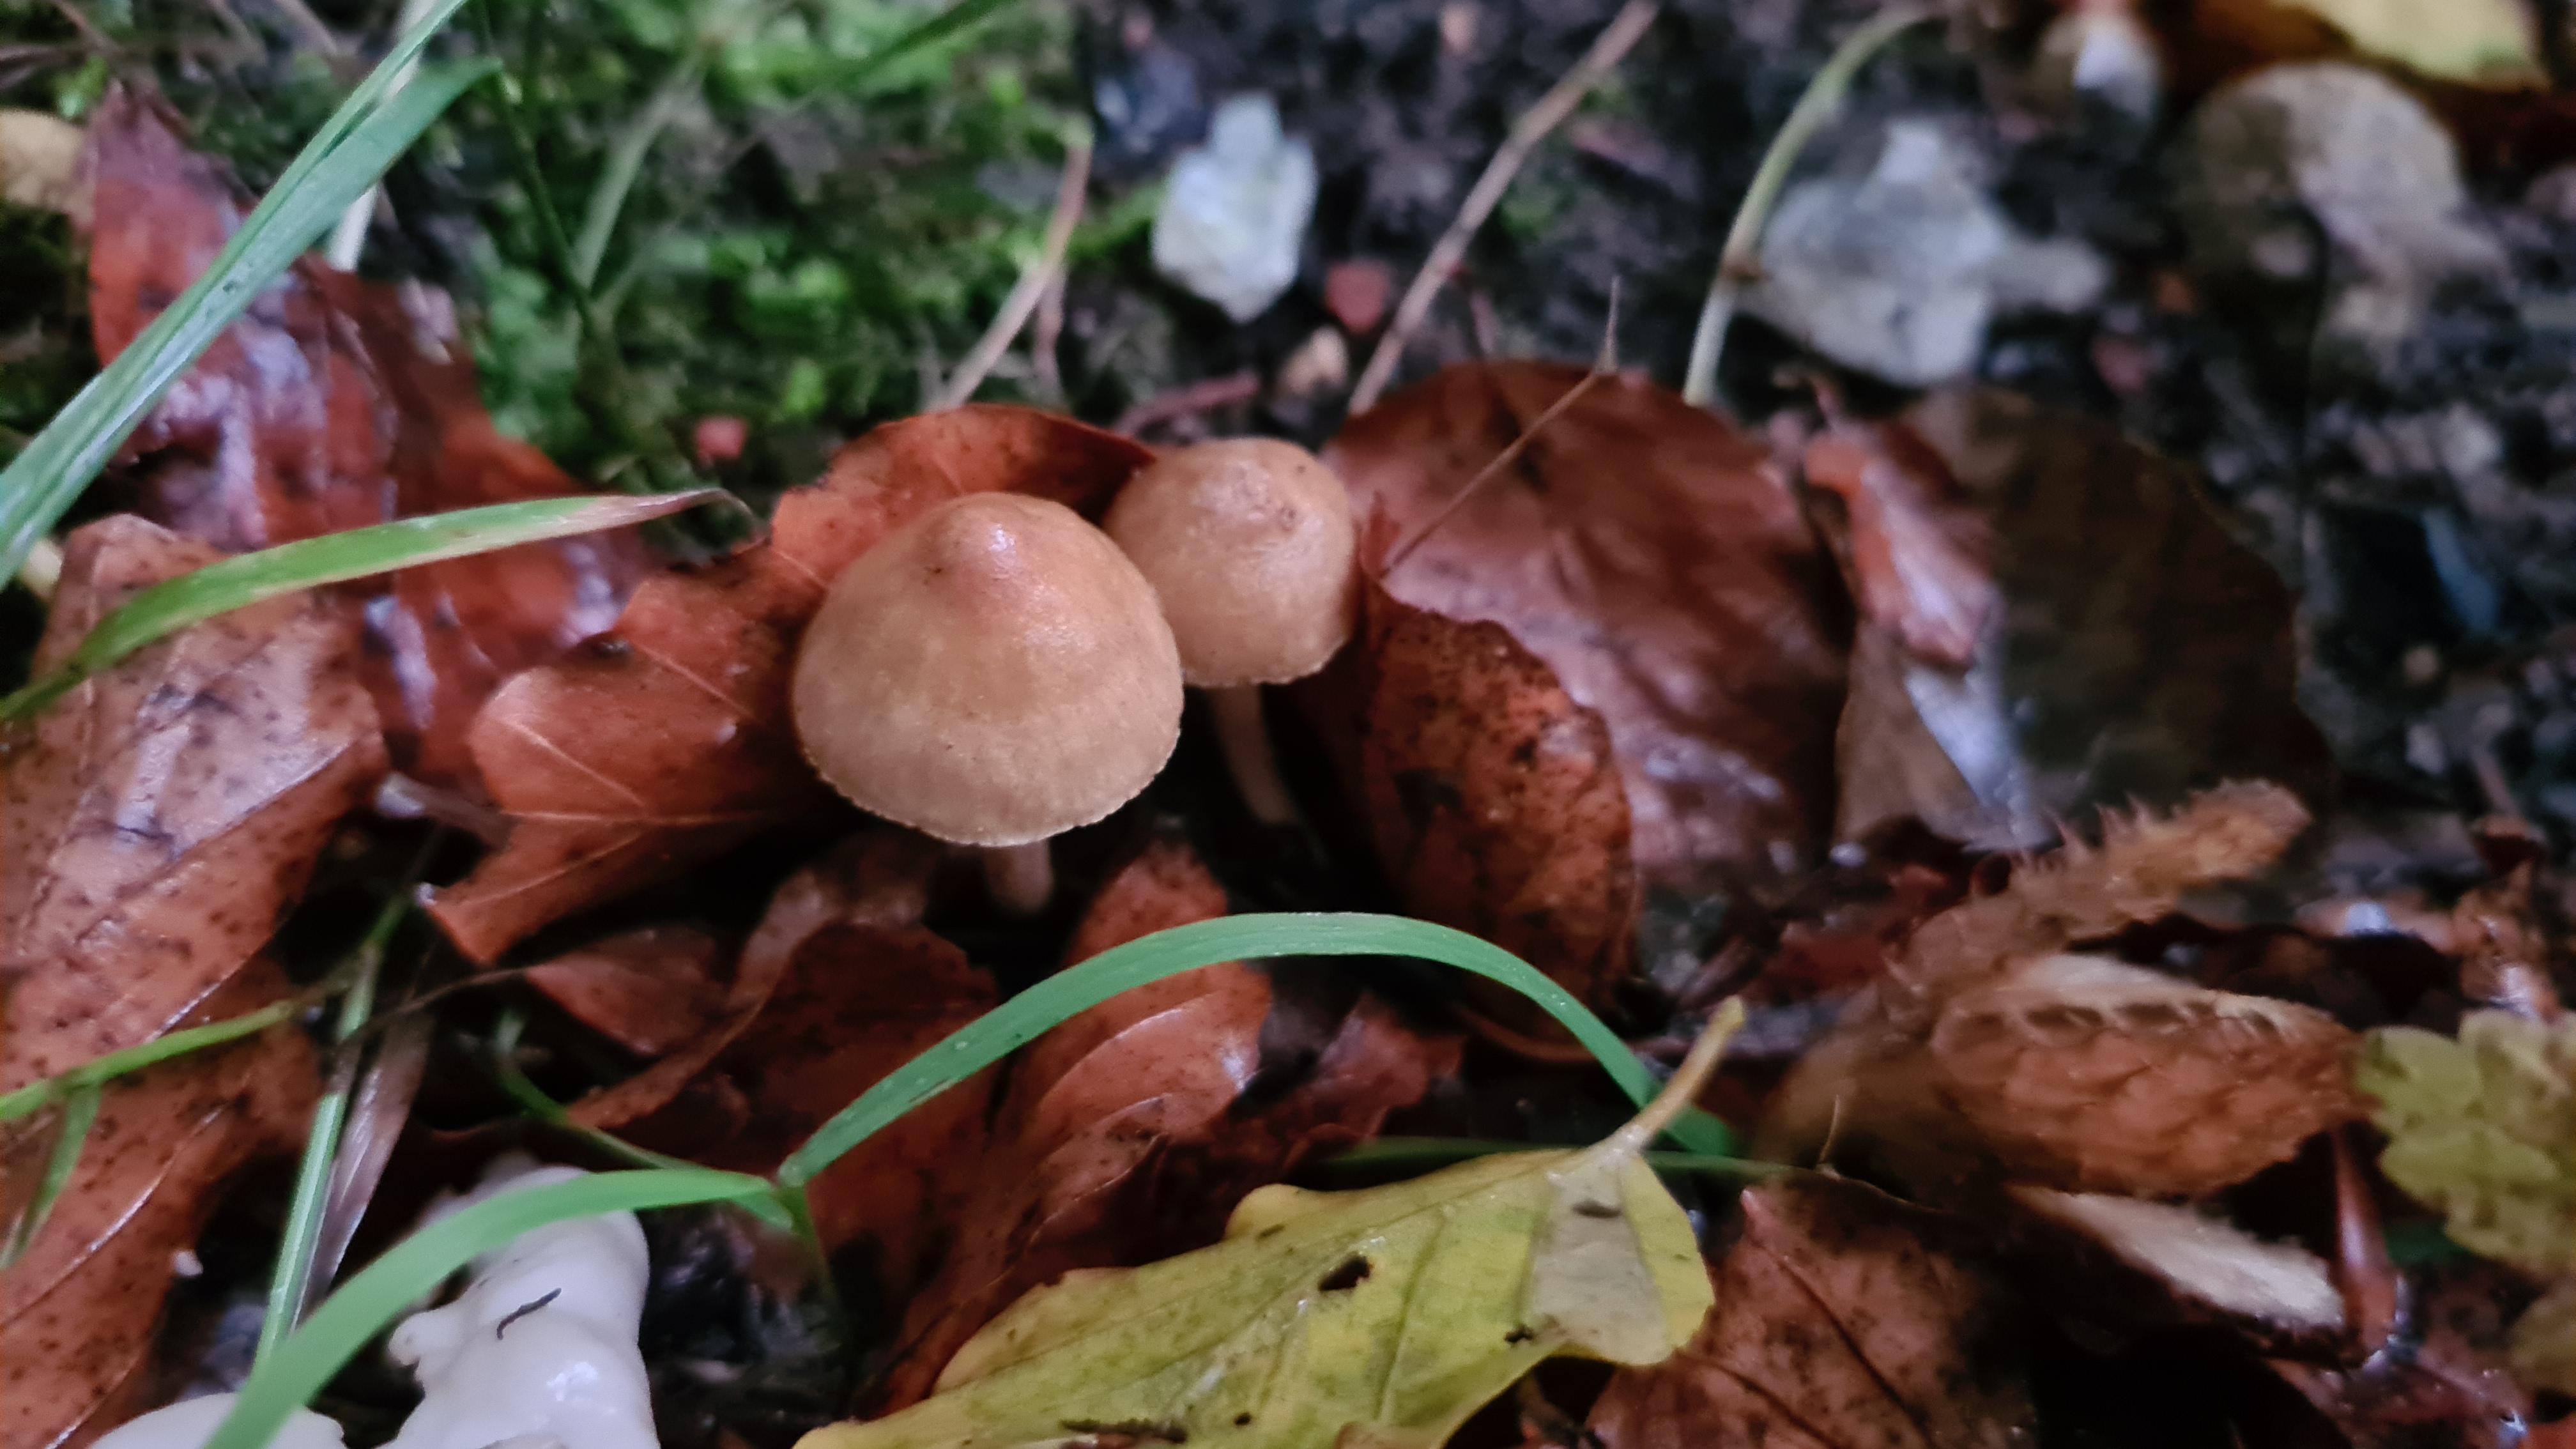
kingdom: Fungi
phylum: Basidiomycota
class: Agaricomycetes
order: Agaricales
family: Inocybaceae
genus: Inocybe
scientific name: Inocybe
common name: trævlhat
